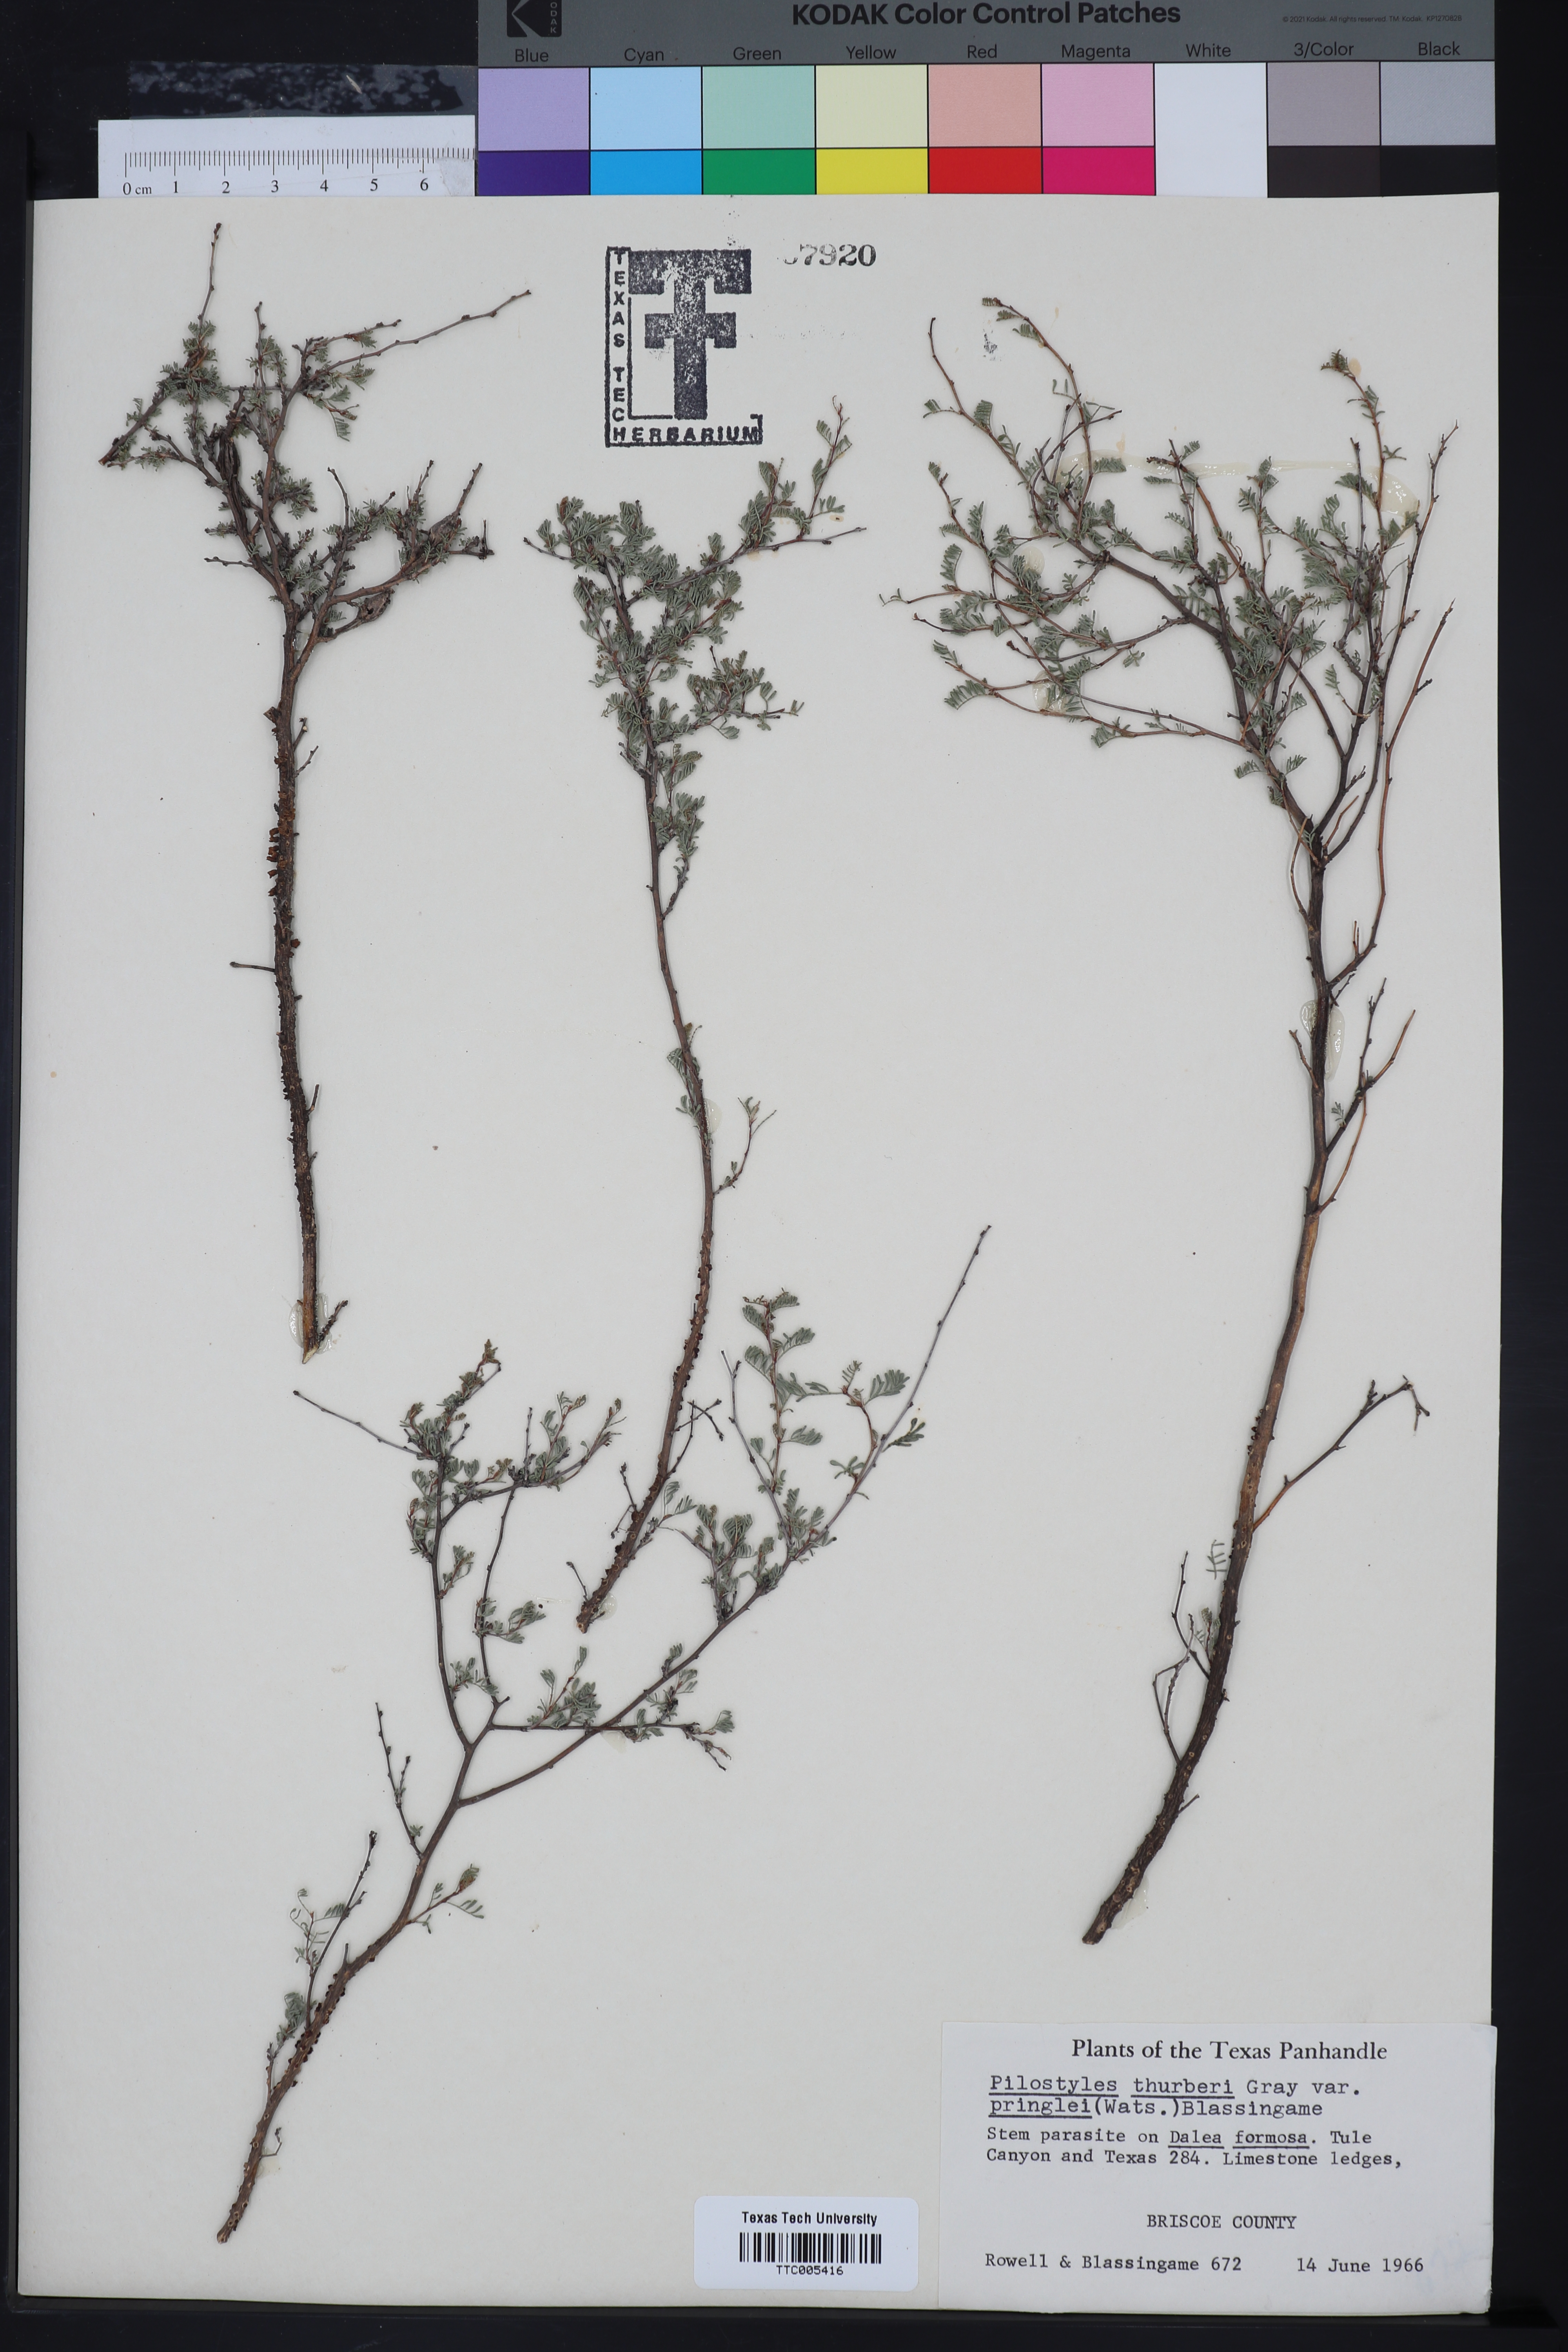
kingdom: Plantae
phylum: Tracheophyta
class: Magnoliopsida
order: Cucurbitales
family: Apodanthaceae
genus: Pilostyles
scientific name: Pilostyles thurberi
